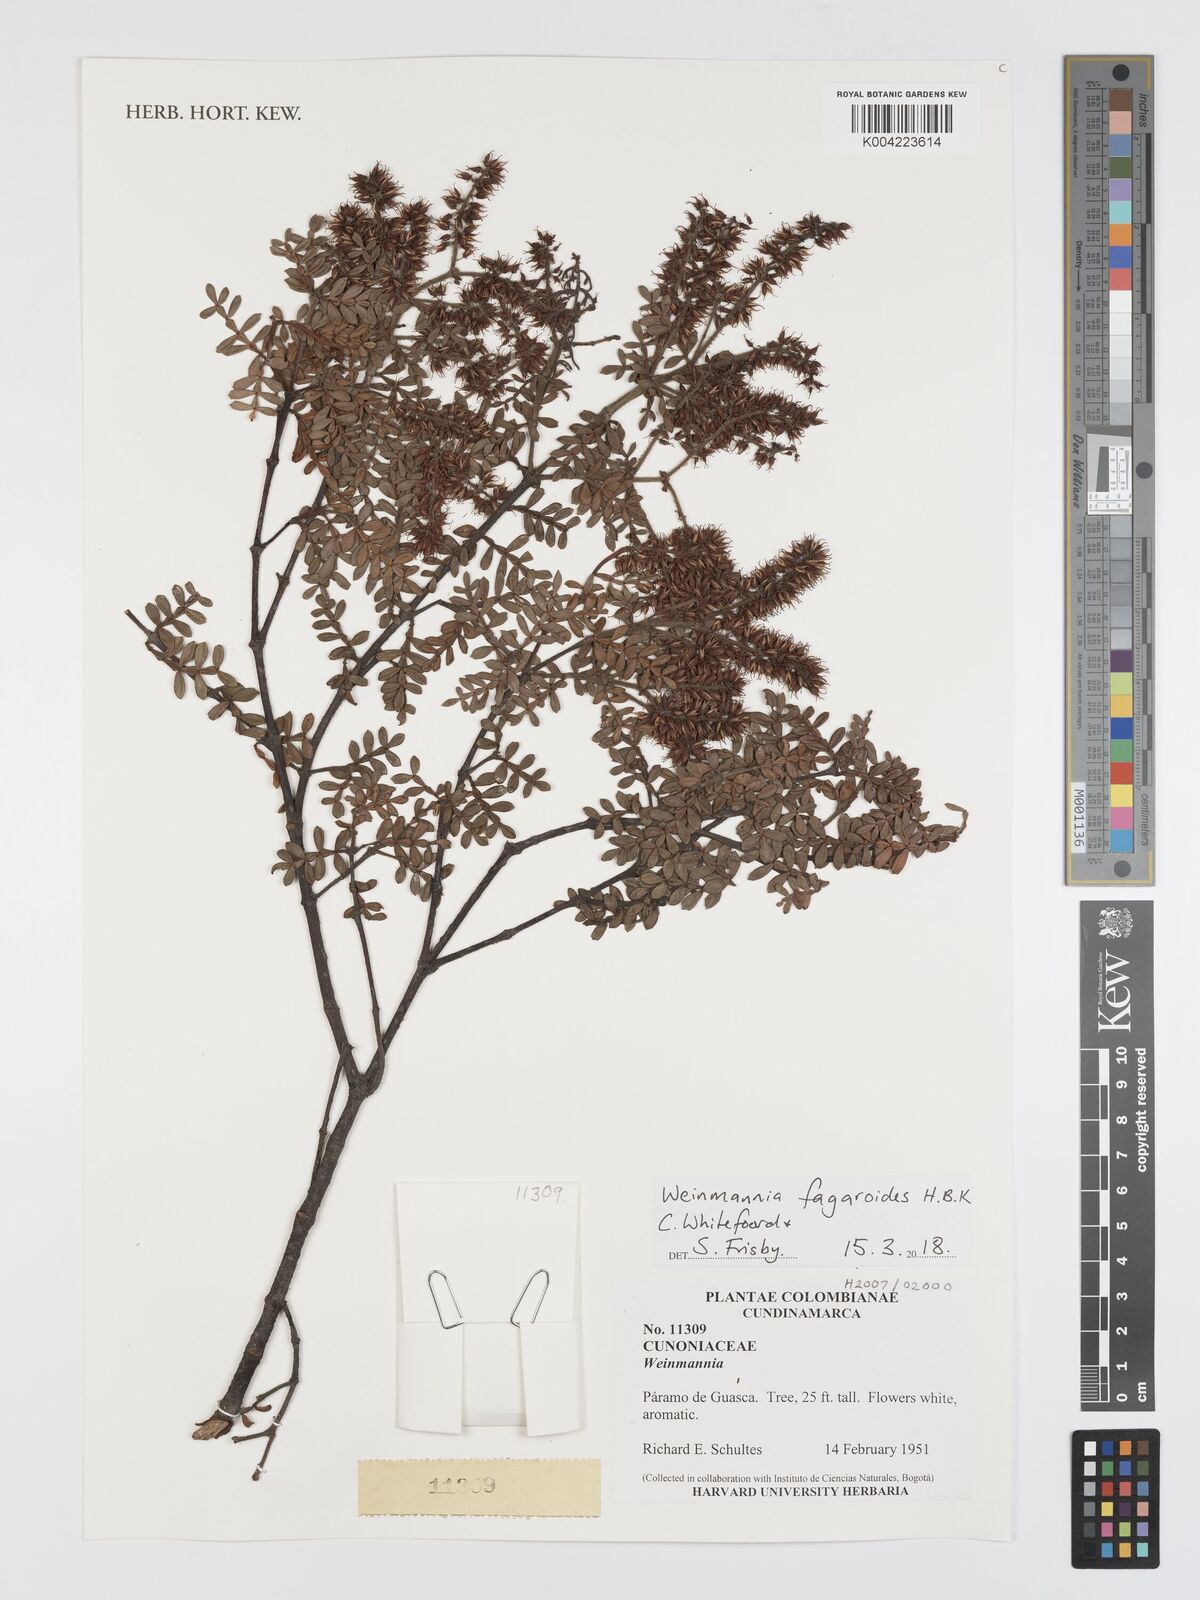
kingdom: Plantae
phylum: Tracheophyta
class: Magnoliopsida
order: Oxalidales
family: Cunoniaceae
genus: Weinmannia
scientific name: Weinmannia fagaroides
